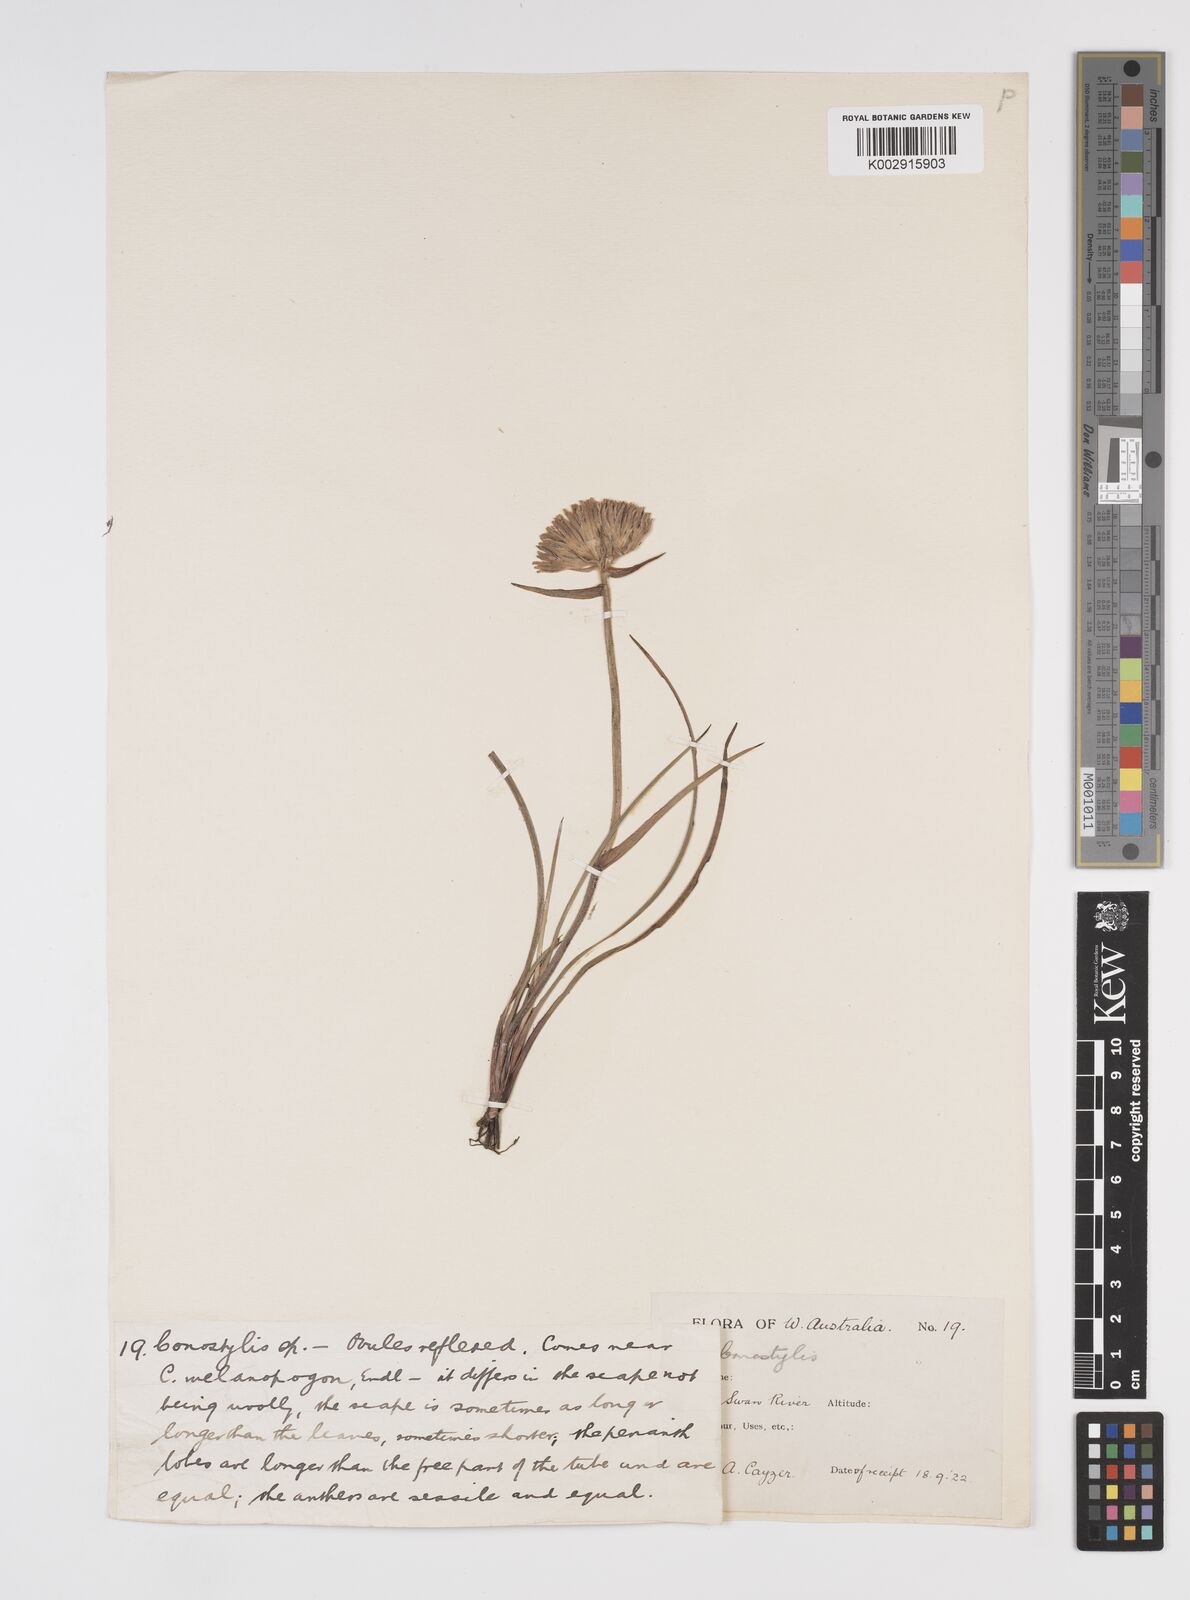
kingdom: Plantae
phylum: Tracheophyta
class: Liliopsida
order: Commelinales
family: Haemodoraceae
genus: Conostylis
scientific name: Conostylis
